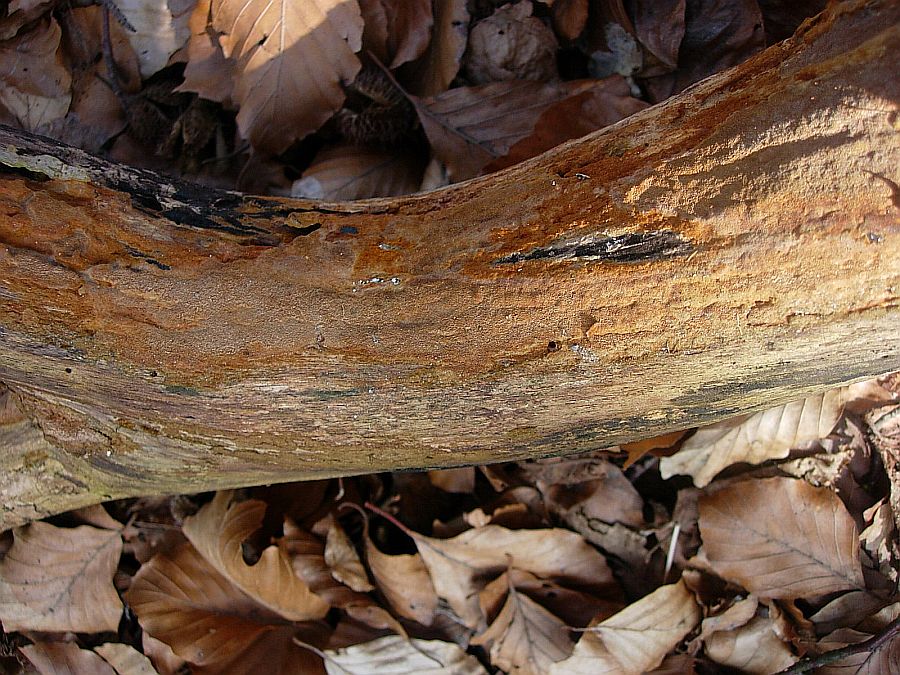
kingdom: Fungi
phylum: Basidiomycota
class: Agaricomycetes
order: Hymenochaetales
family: Hymenochaetaceae
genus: Fuscoporia
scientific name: Fuscoporia ferrea
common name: skorpe-ildporesvamp
